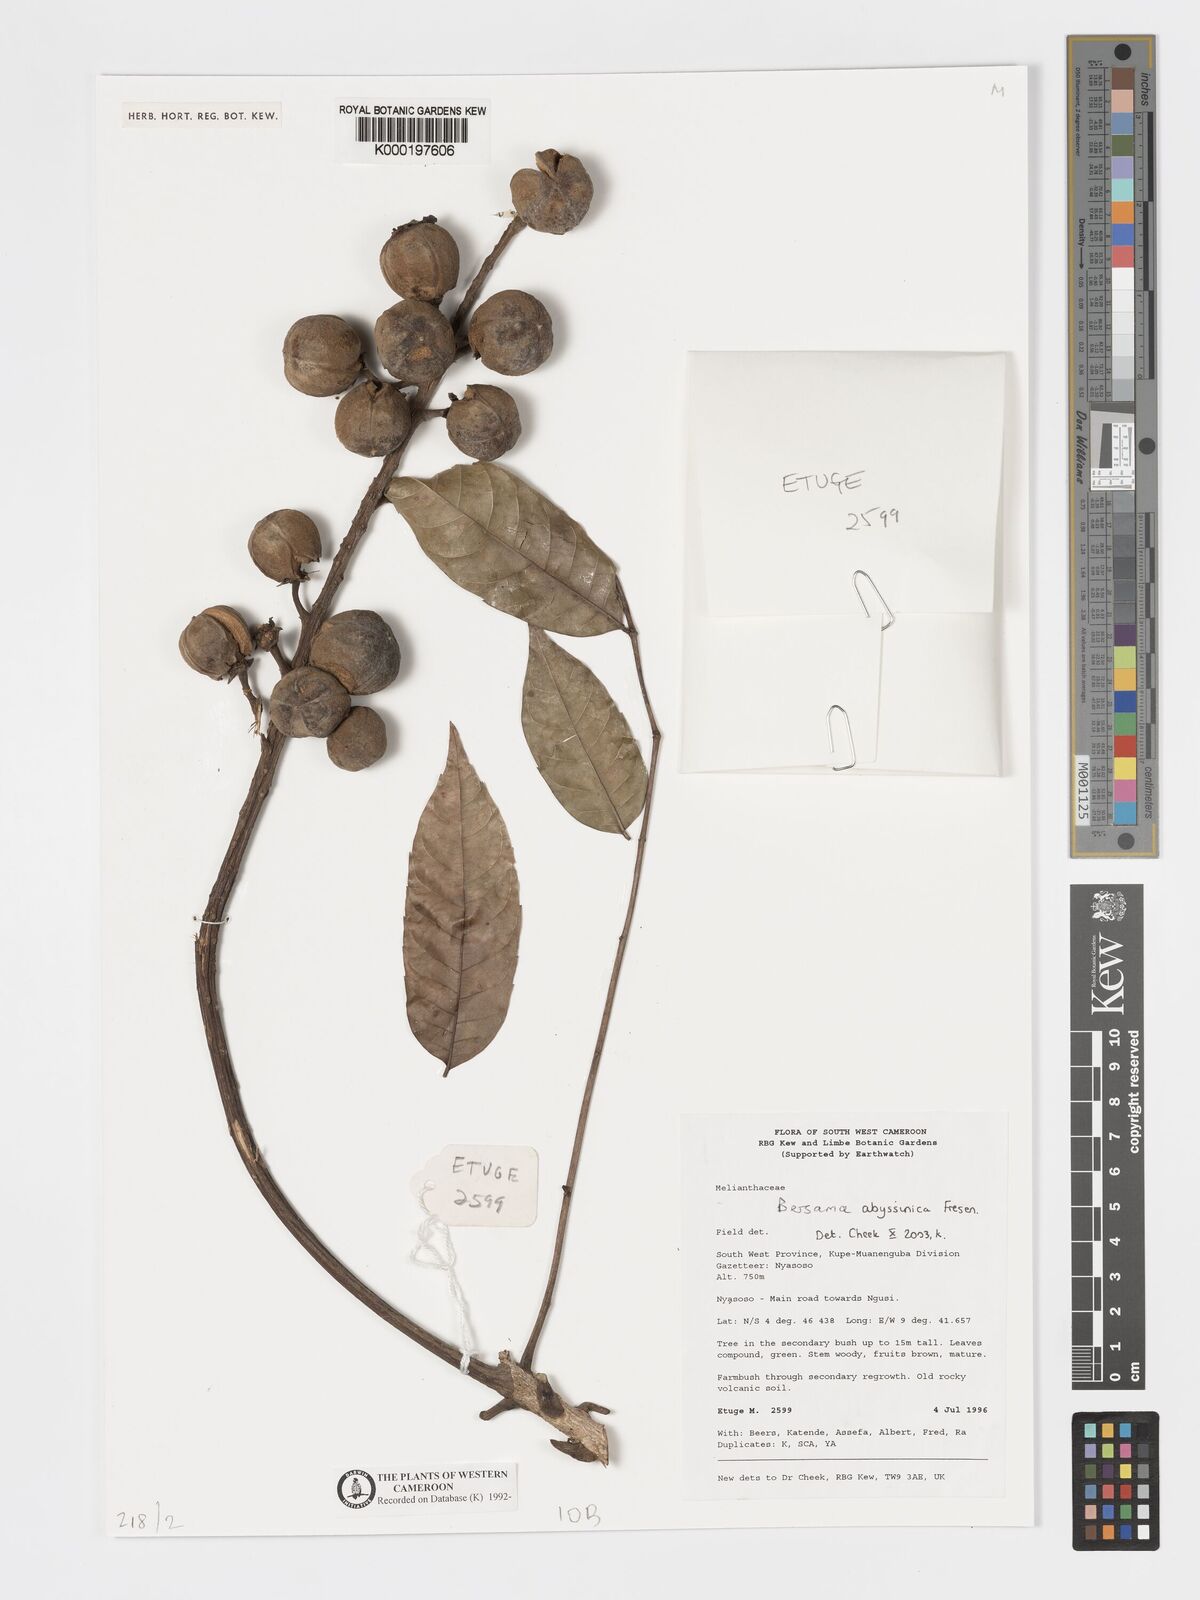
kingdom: Plantae
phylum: Tracheophyta
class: Magnoliopsida
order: Geraniales
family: Melianthaceae
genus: Bersama
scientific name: Bersama abyssinica
